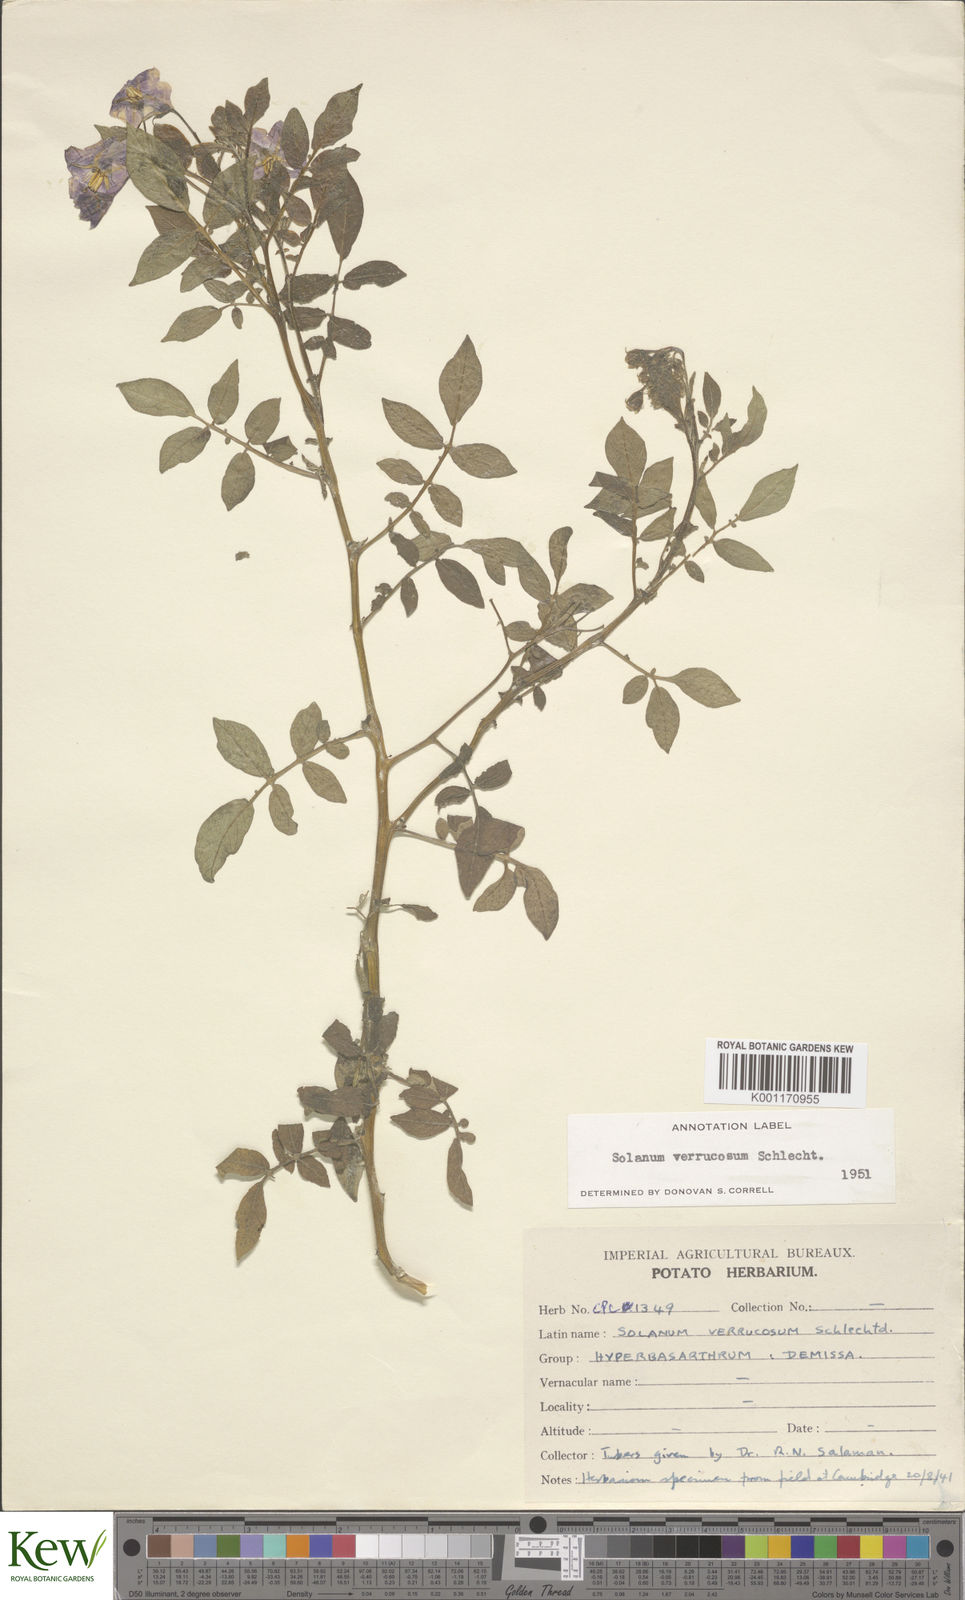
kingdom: Plantae
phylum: Tracheophyta
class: Magnoliopsida
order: Solanales
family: Solanaceae
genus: Solanum
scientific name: Solanum verrucosum
